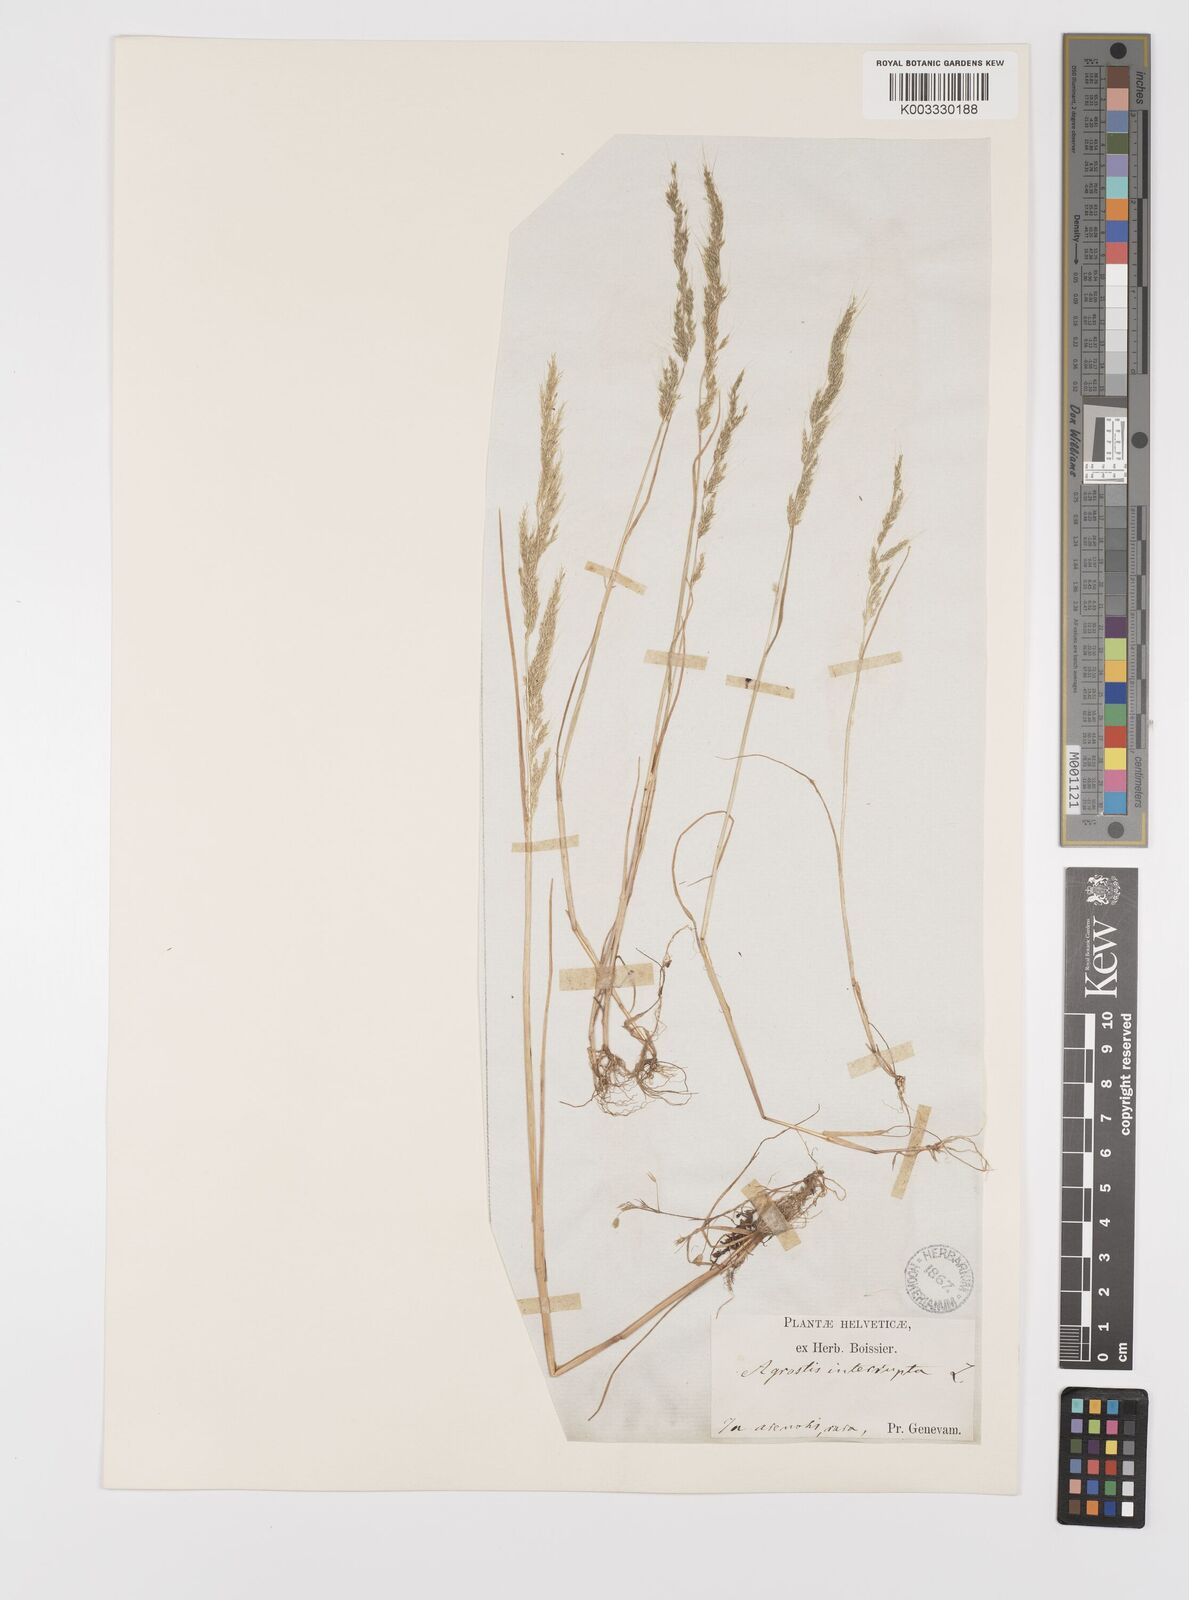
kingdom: Plantae
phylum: Tracheophyta
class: Liliopsida
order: Poales
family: Poaceae
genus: Apera
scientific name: Apera interrupta
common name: Dense silky-bent
